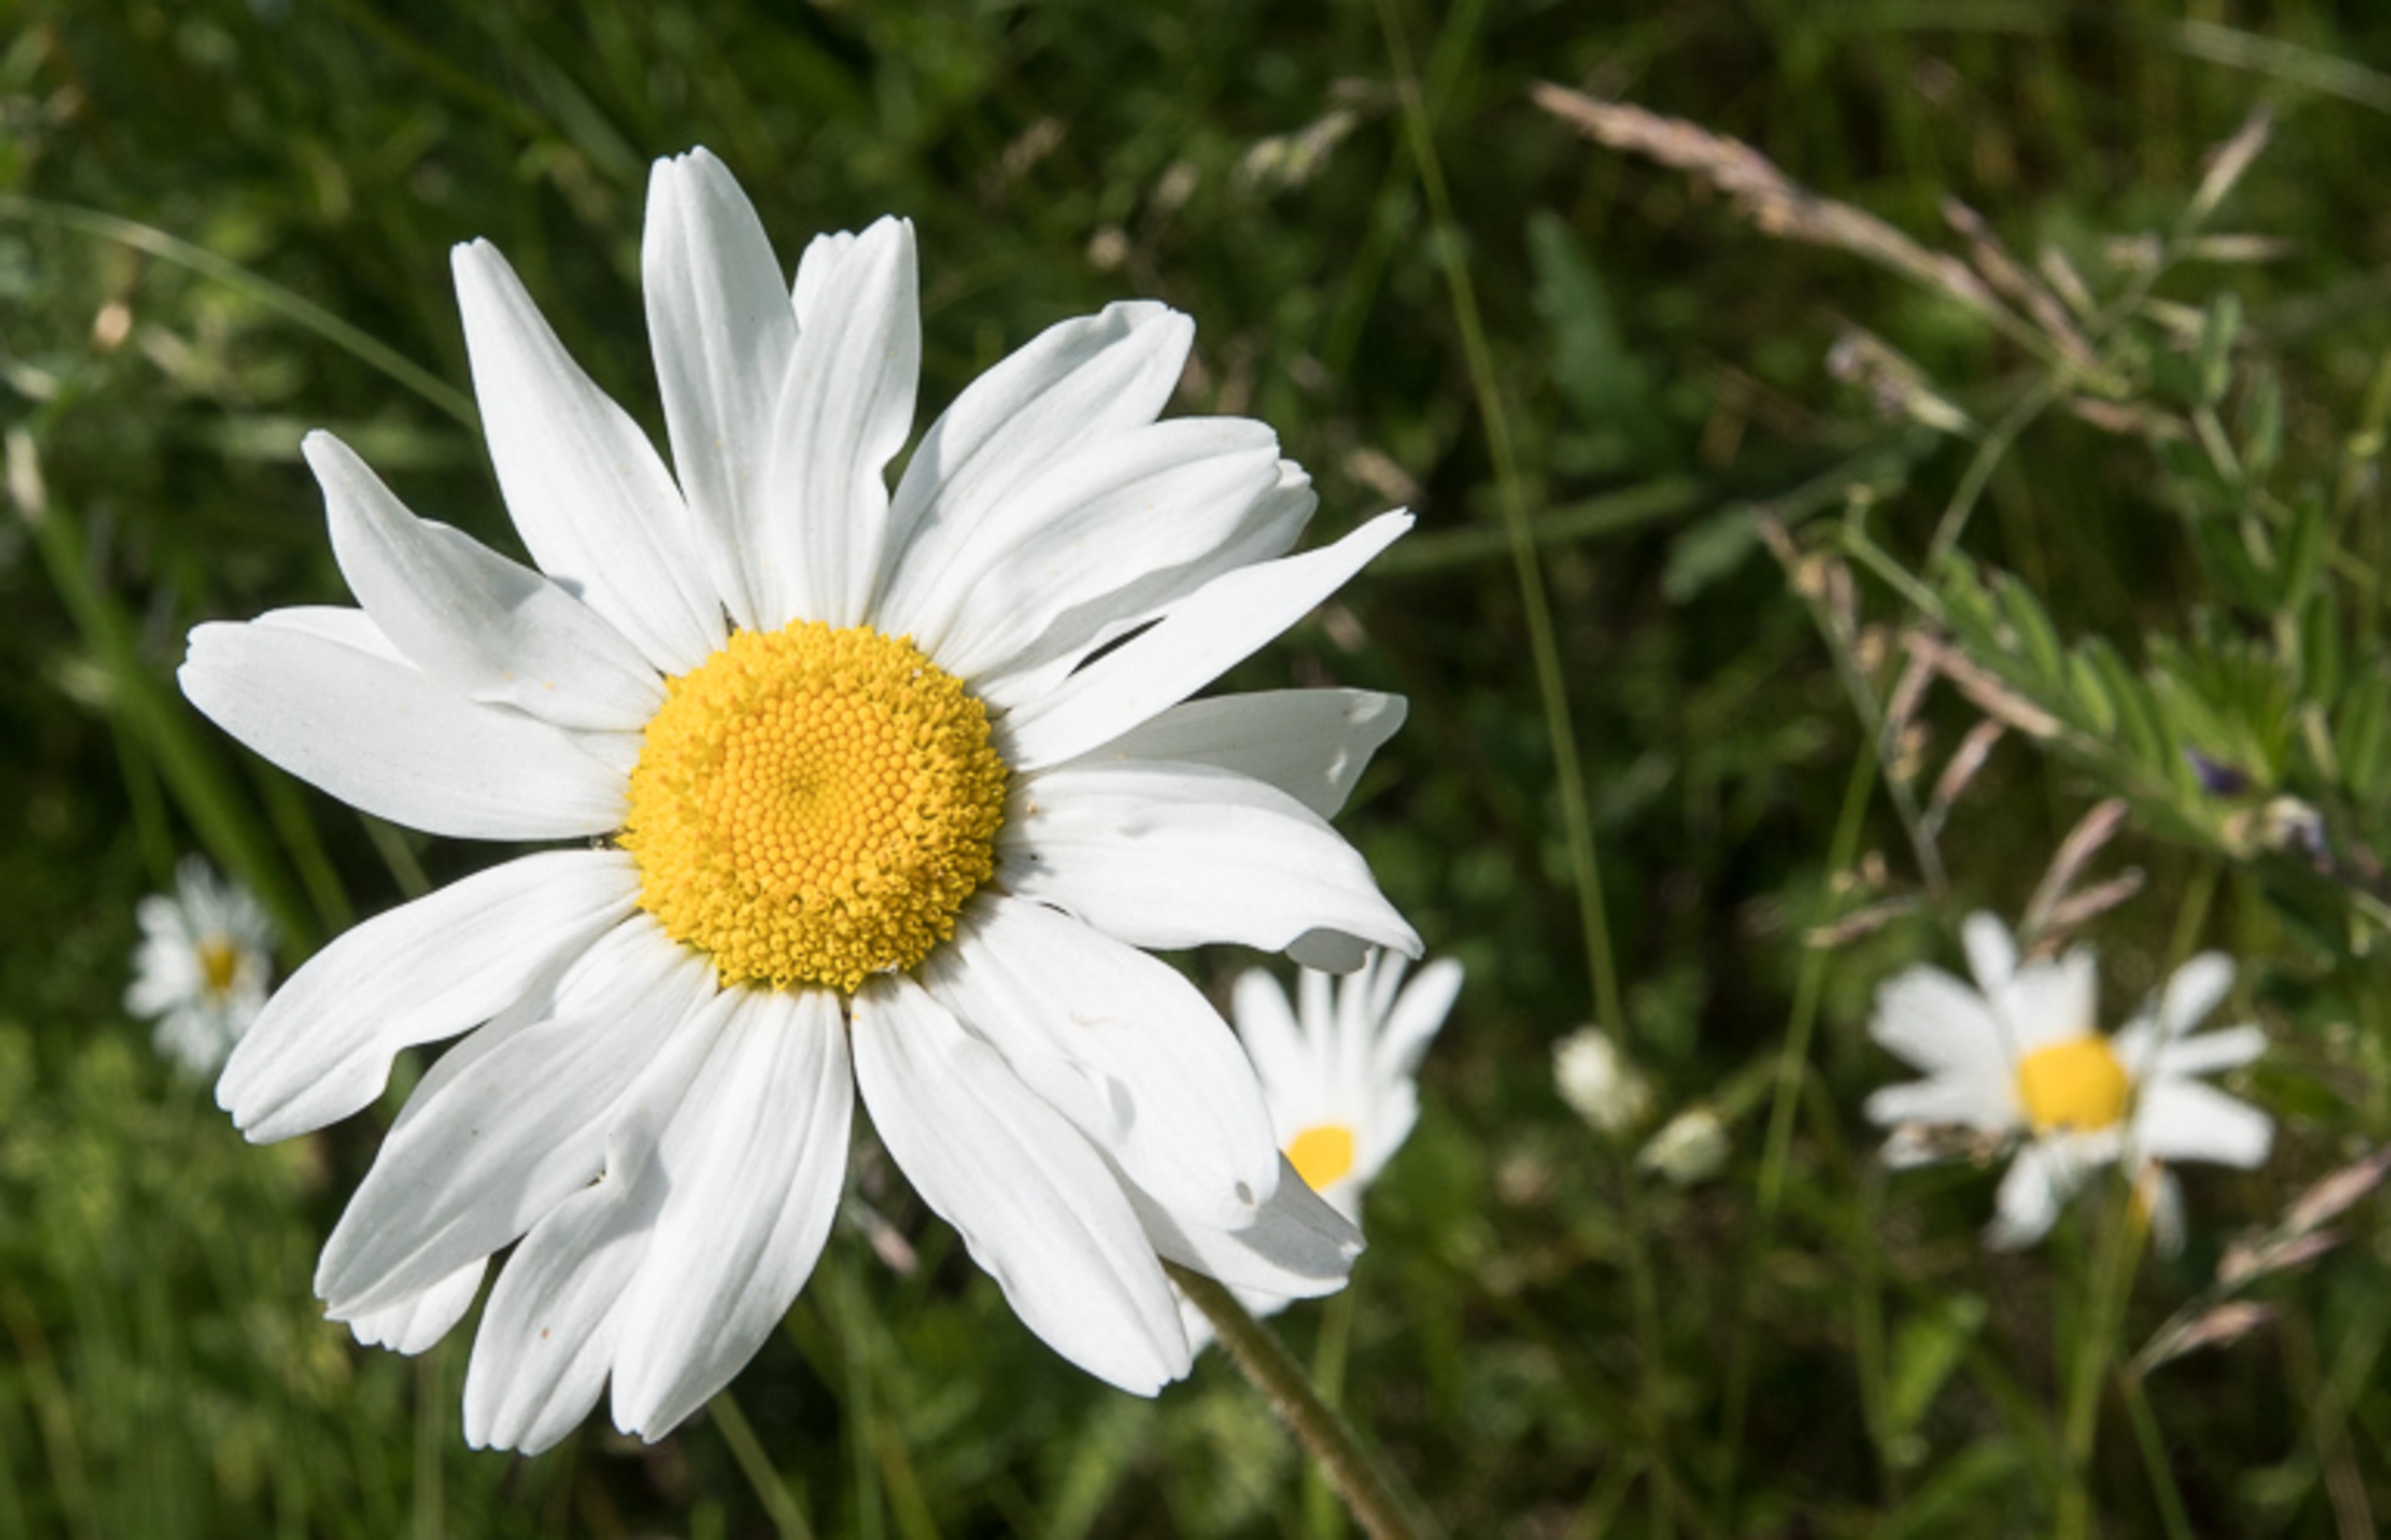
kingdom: Plantae
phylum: Tracheophyta
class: Magnoliopsida
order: Asterales
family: Asteraceae
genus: Leucanthemum
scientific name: Leucanthemum vulgare
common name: Hvid okseøje
